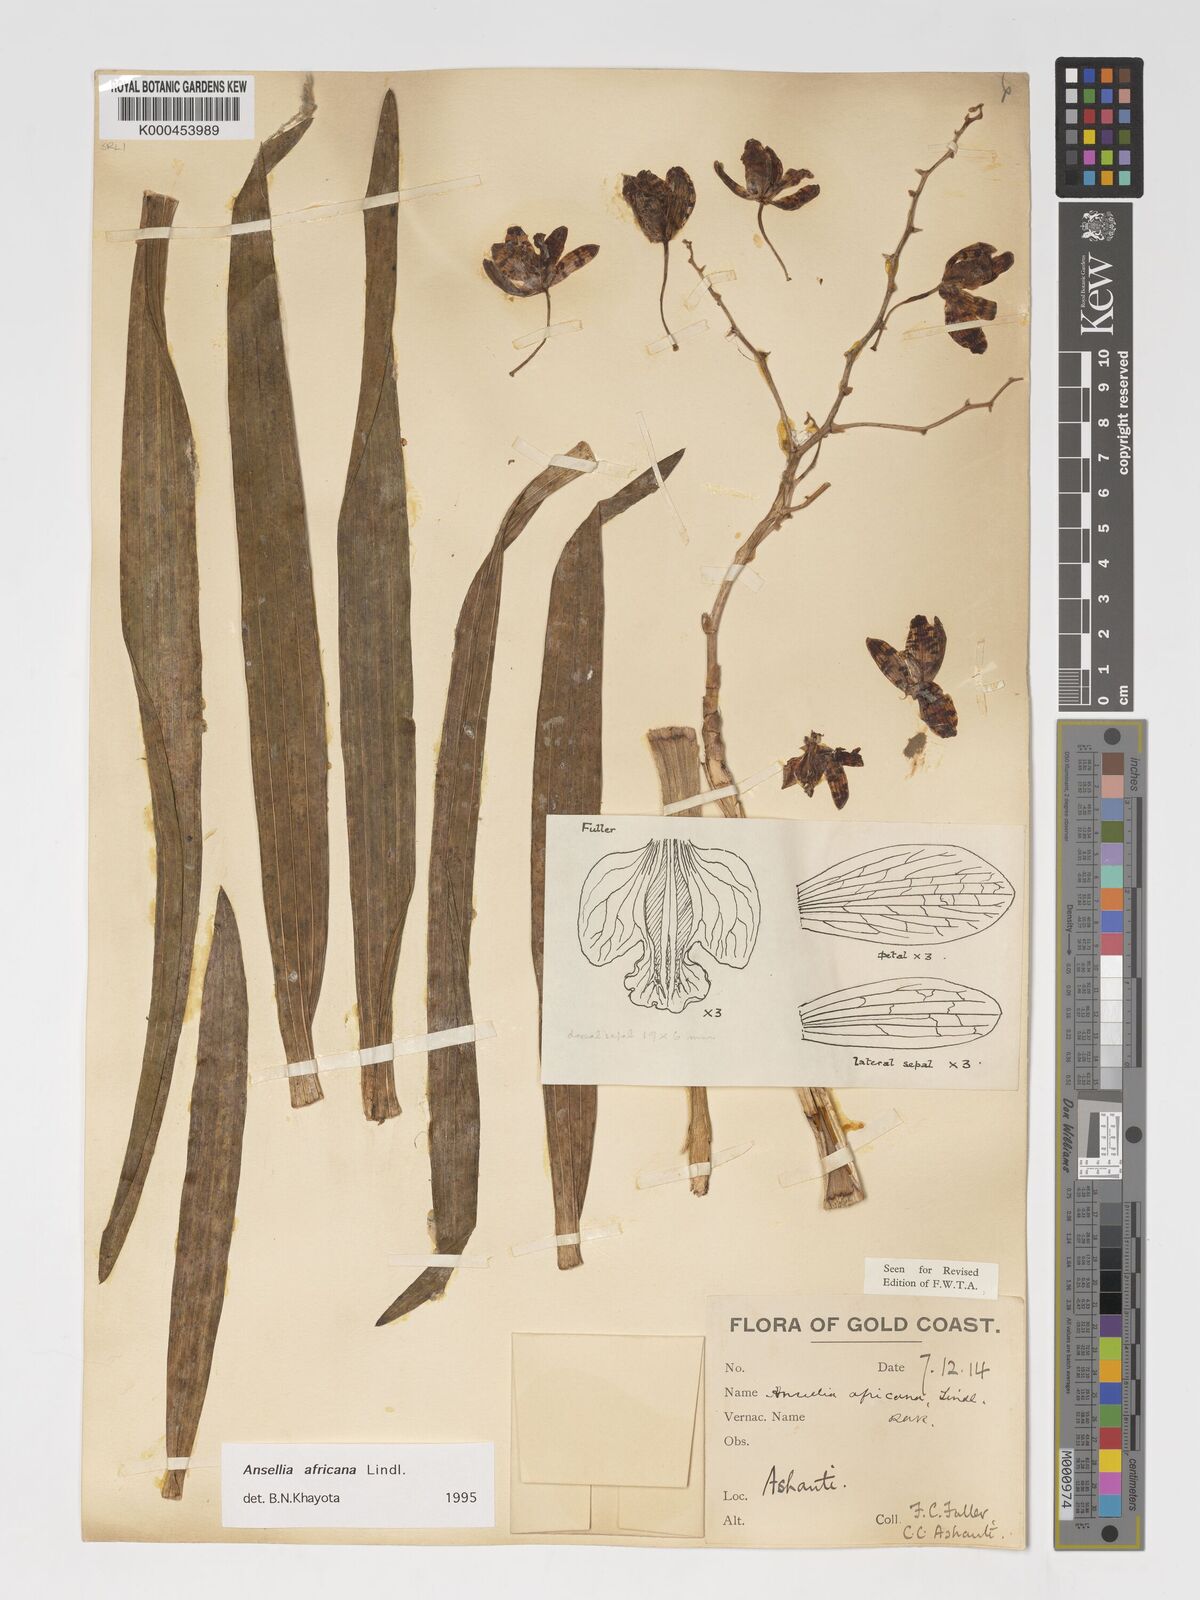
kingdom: Plantae
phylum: Tracheophyta
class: Liliopsida
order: Asparagales
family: Orchidaceae
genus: Ansellia
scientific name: Ansellia africana
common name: African ansellia
